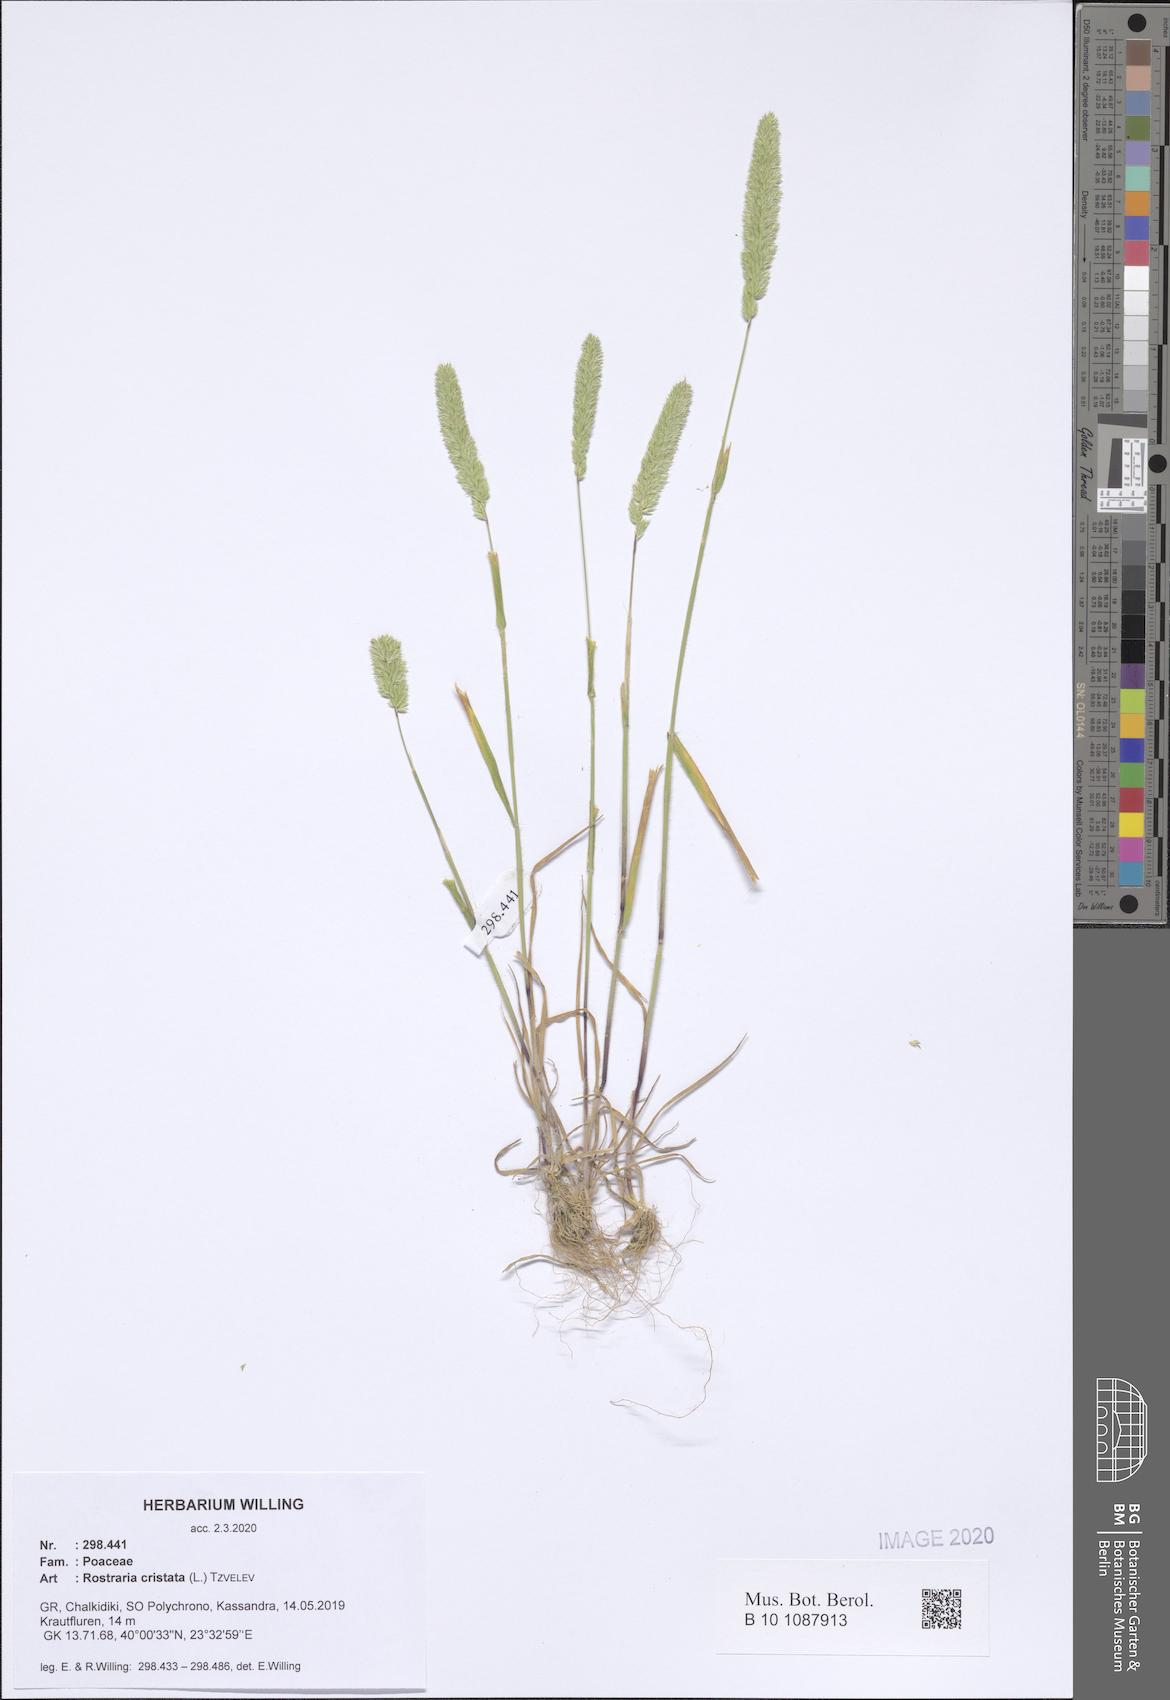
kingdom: Plantae
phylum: Tracheophyta
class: Liliopsida
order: Poales
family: Poaceae
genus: Rostraria
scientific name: Rostraria cristata
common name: Mediterranean hair-grass
